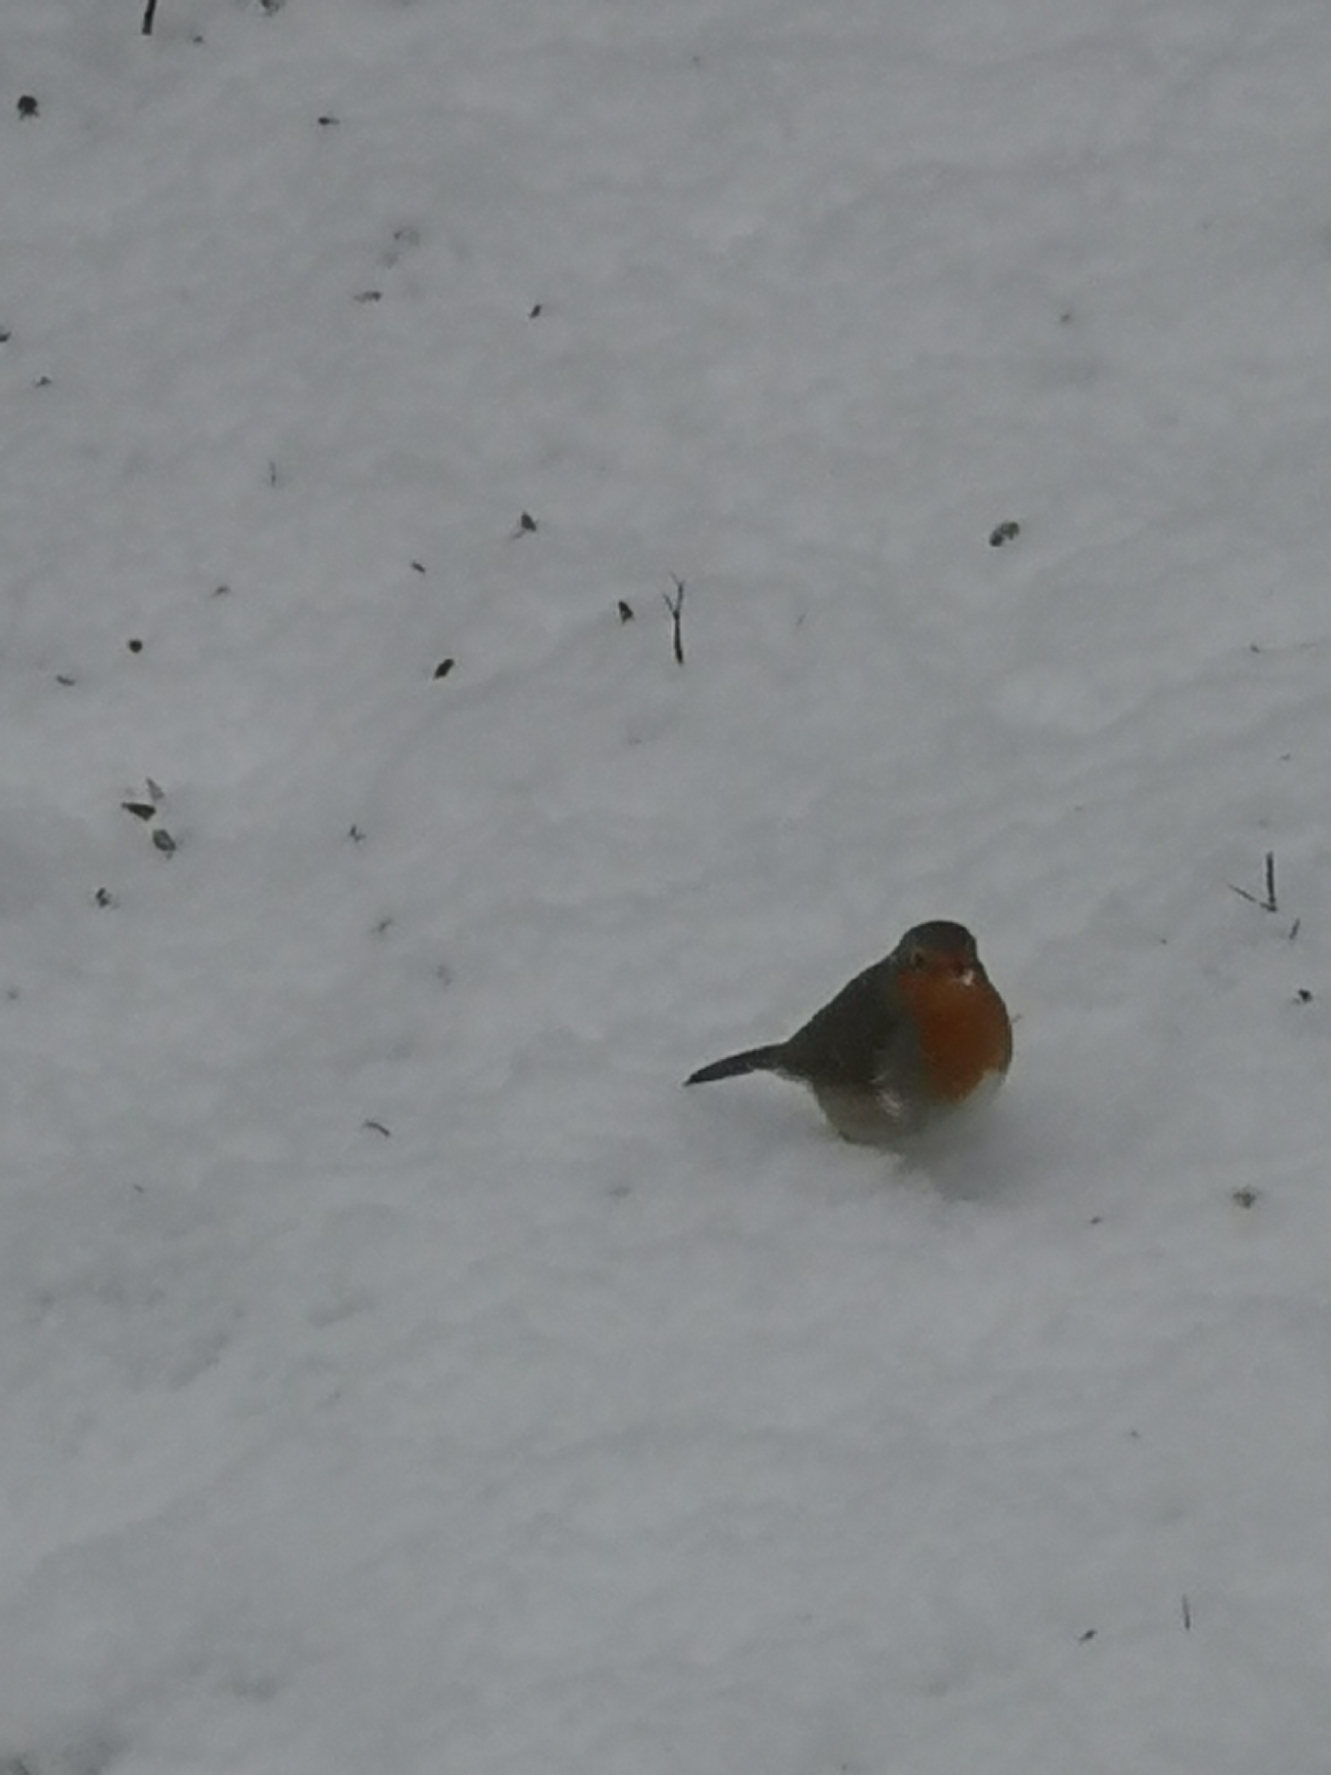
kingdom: Animalia
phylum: Chordata
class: Aves
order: Passeriformes
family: Muscicapidae
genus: Erithacus
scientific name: Erithacus rubecula
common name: Rødhals/rødkælk
